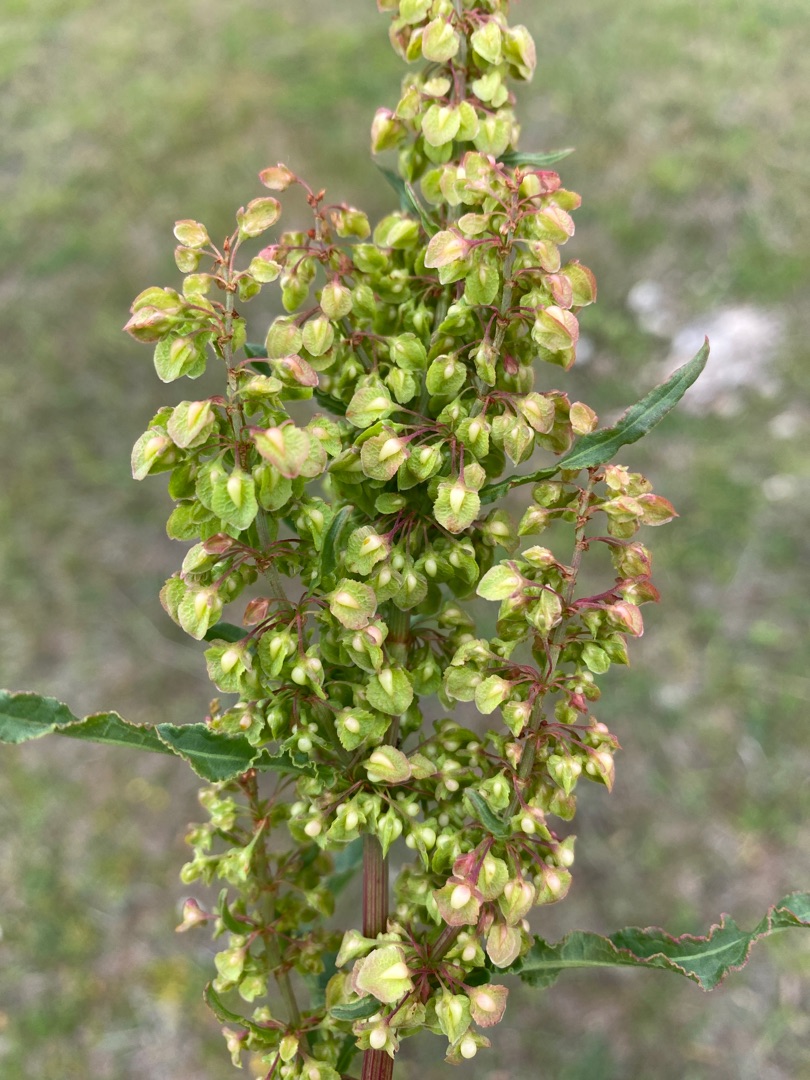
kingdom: Plantae
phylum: Tracheophyta
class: Magnoliopsida
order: Caryophyllales
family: Polygonaceae
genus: Rumex
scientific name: Rumex crispus
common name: Kruset skræppe
